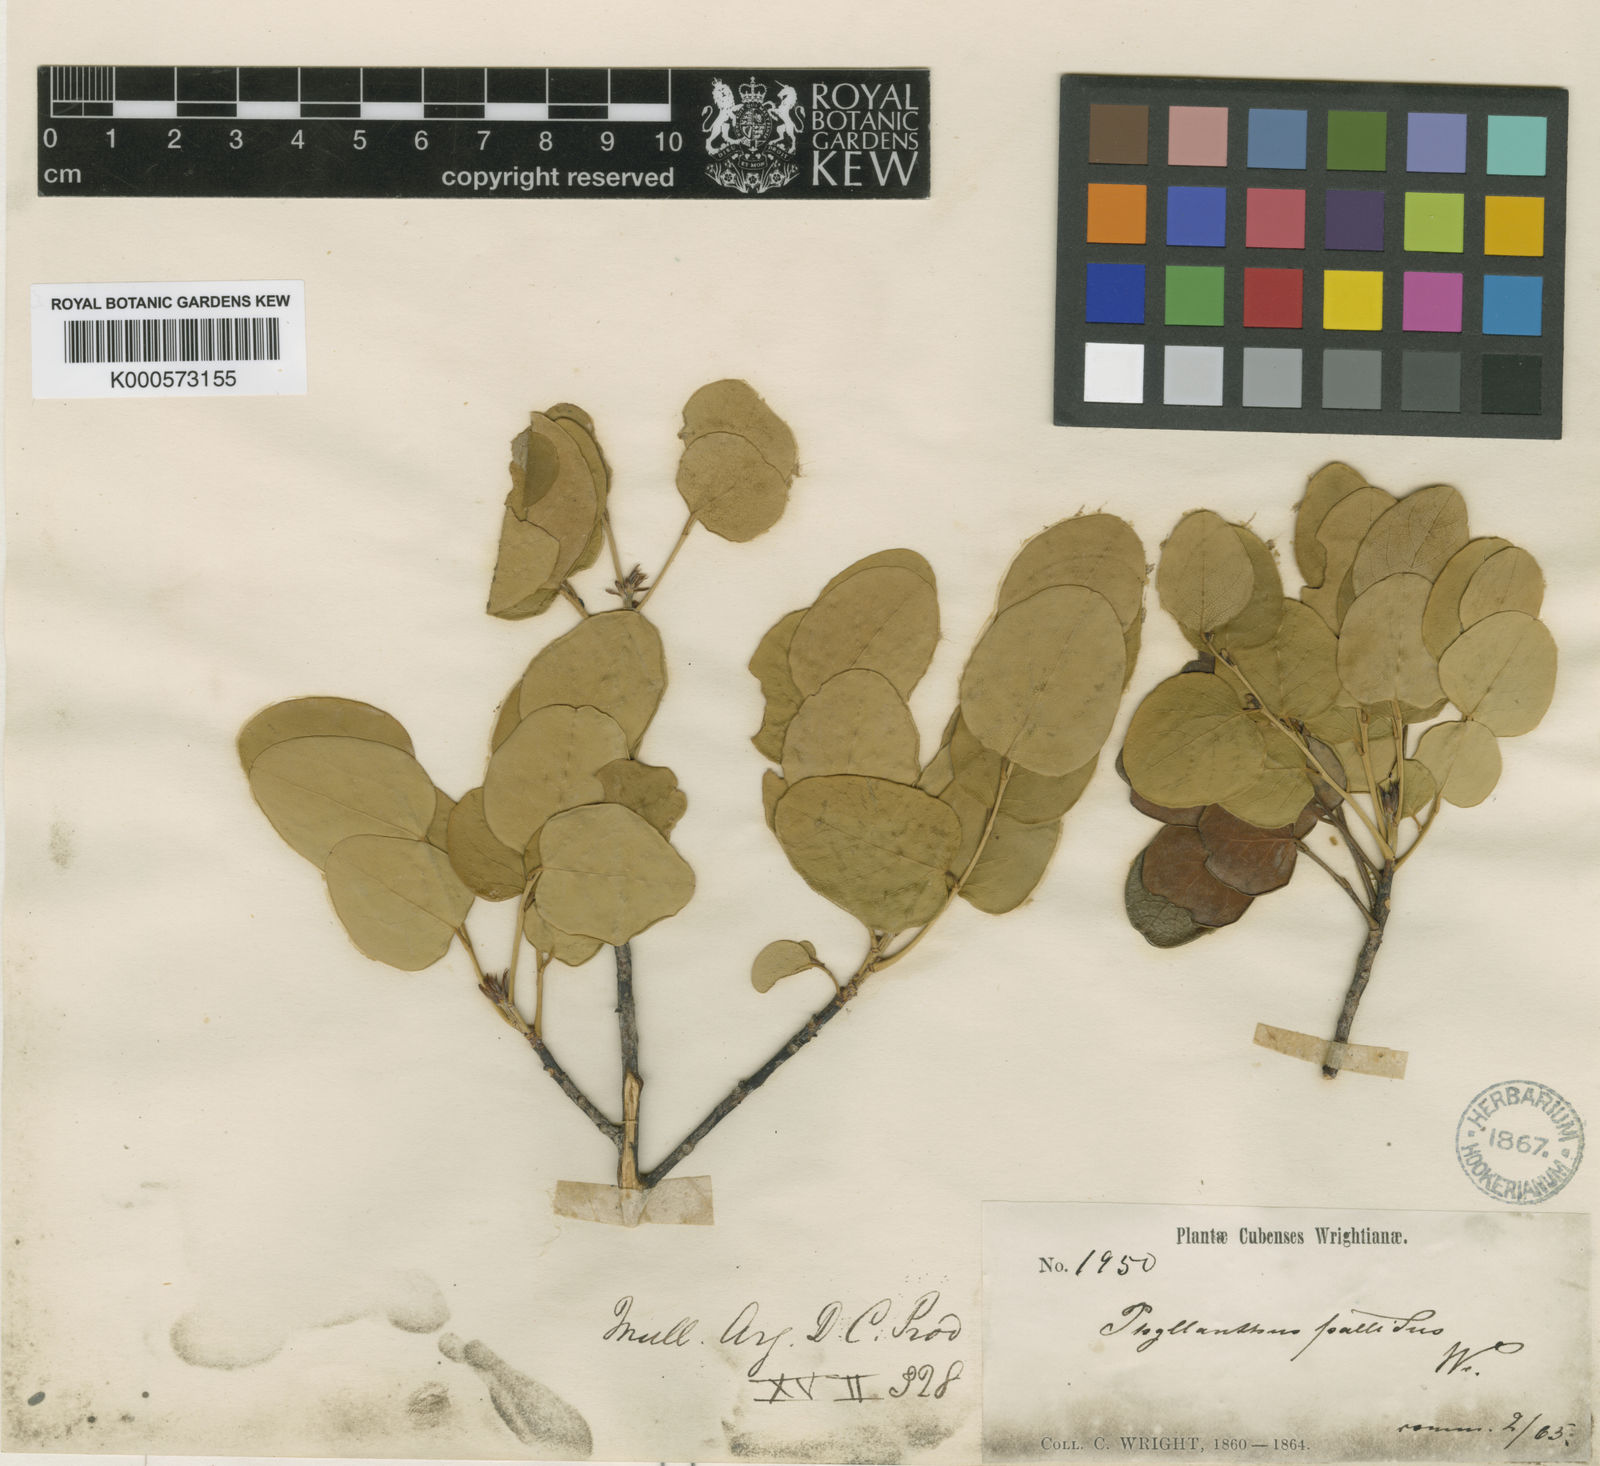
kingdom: Plantae
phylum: Tracheophyta
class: Magnoliopsida
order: Malpighiales
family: Phyllanthaceae
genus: Phyllanthus
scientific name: Phyllanthus
